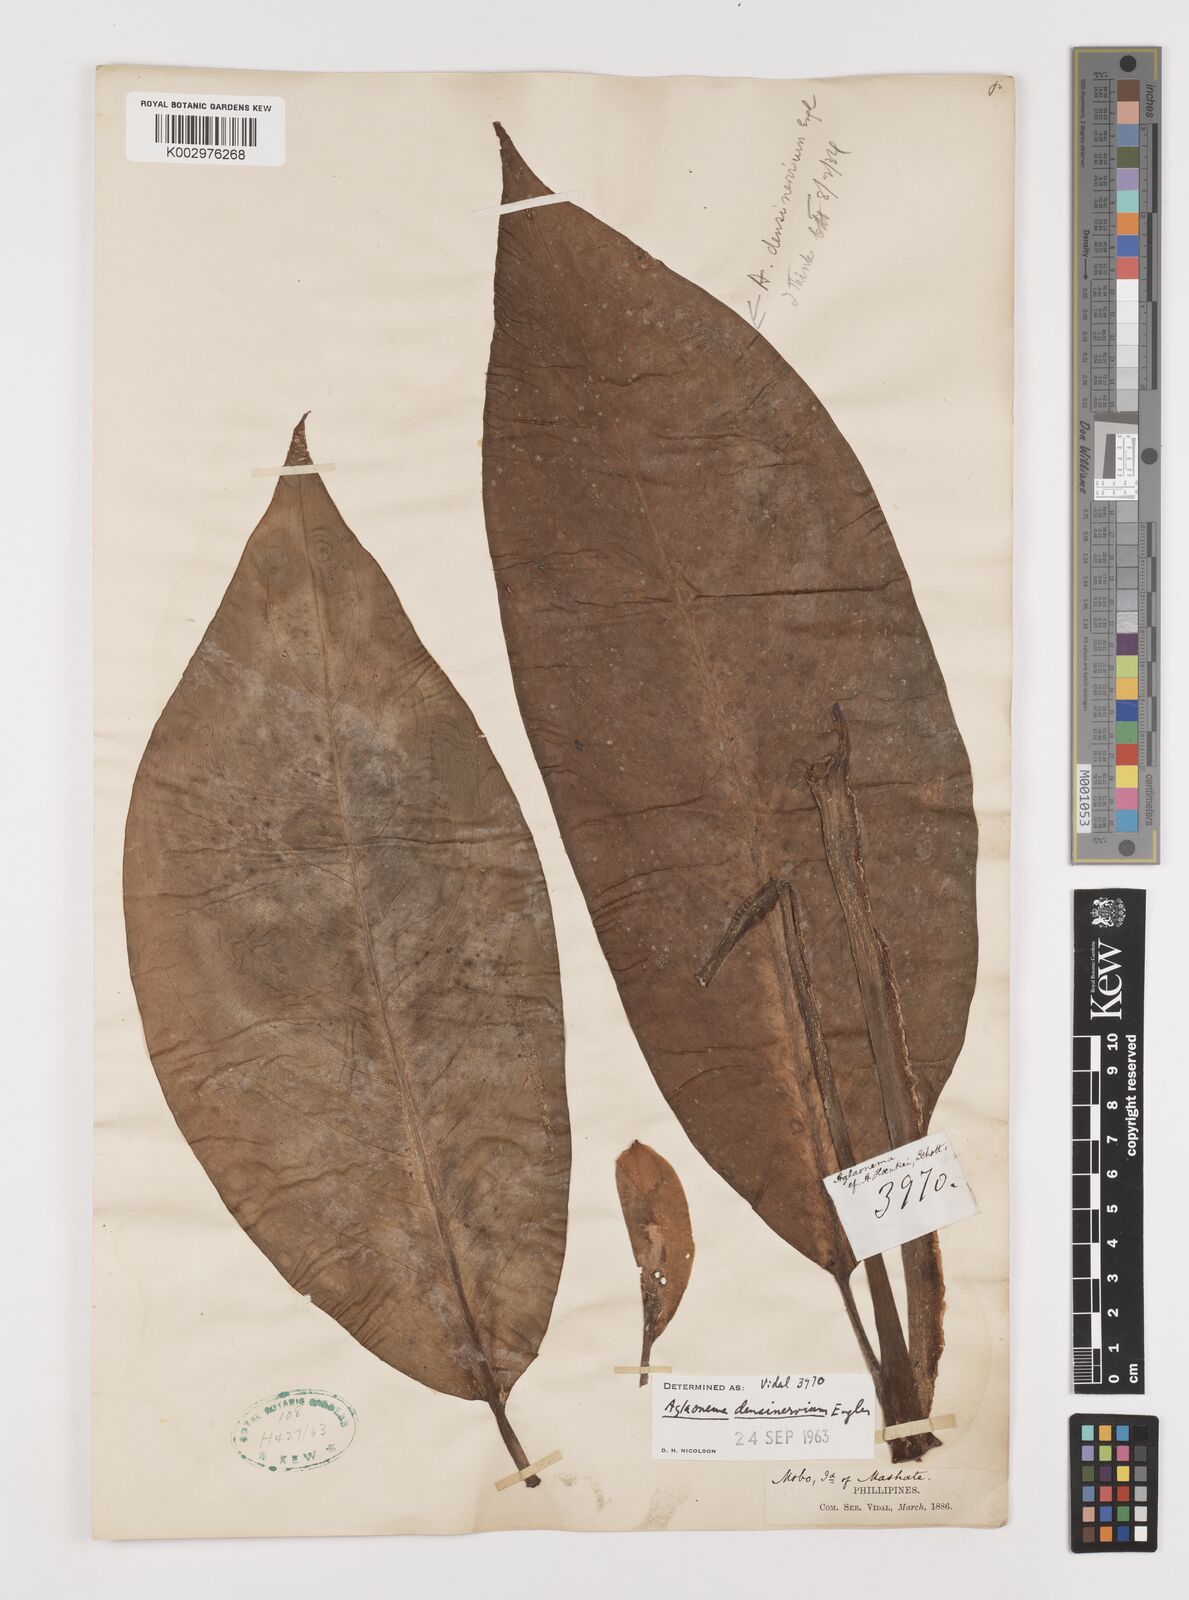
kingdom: Plantae
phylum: Tracheophyta
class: Liliopsida
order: Alismatales
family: Araceae
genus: Aglaonema
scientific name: Aglaonema densinervium
